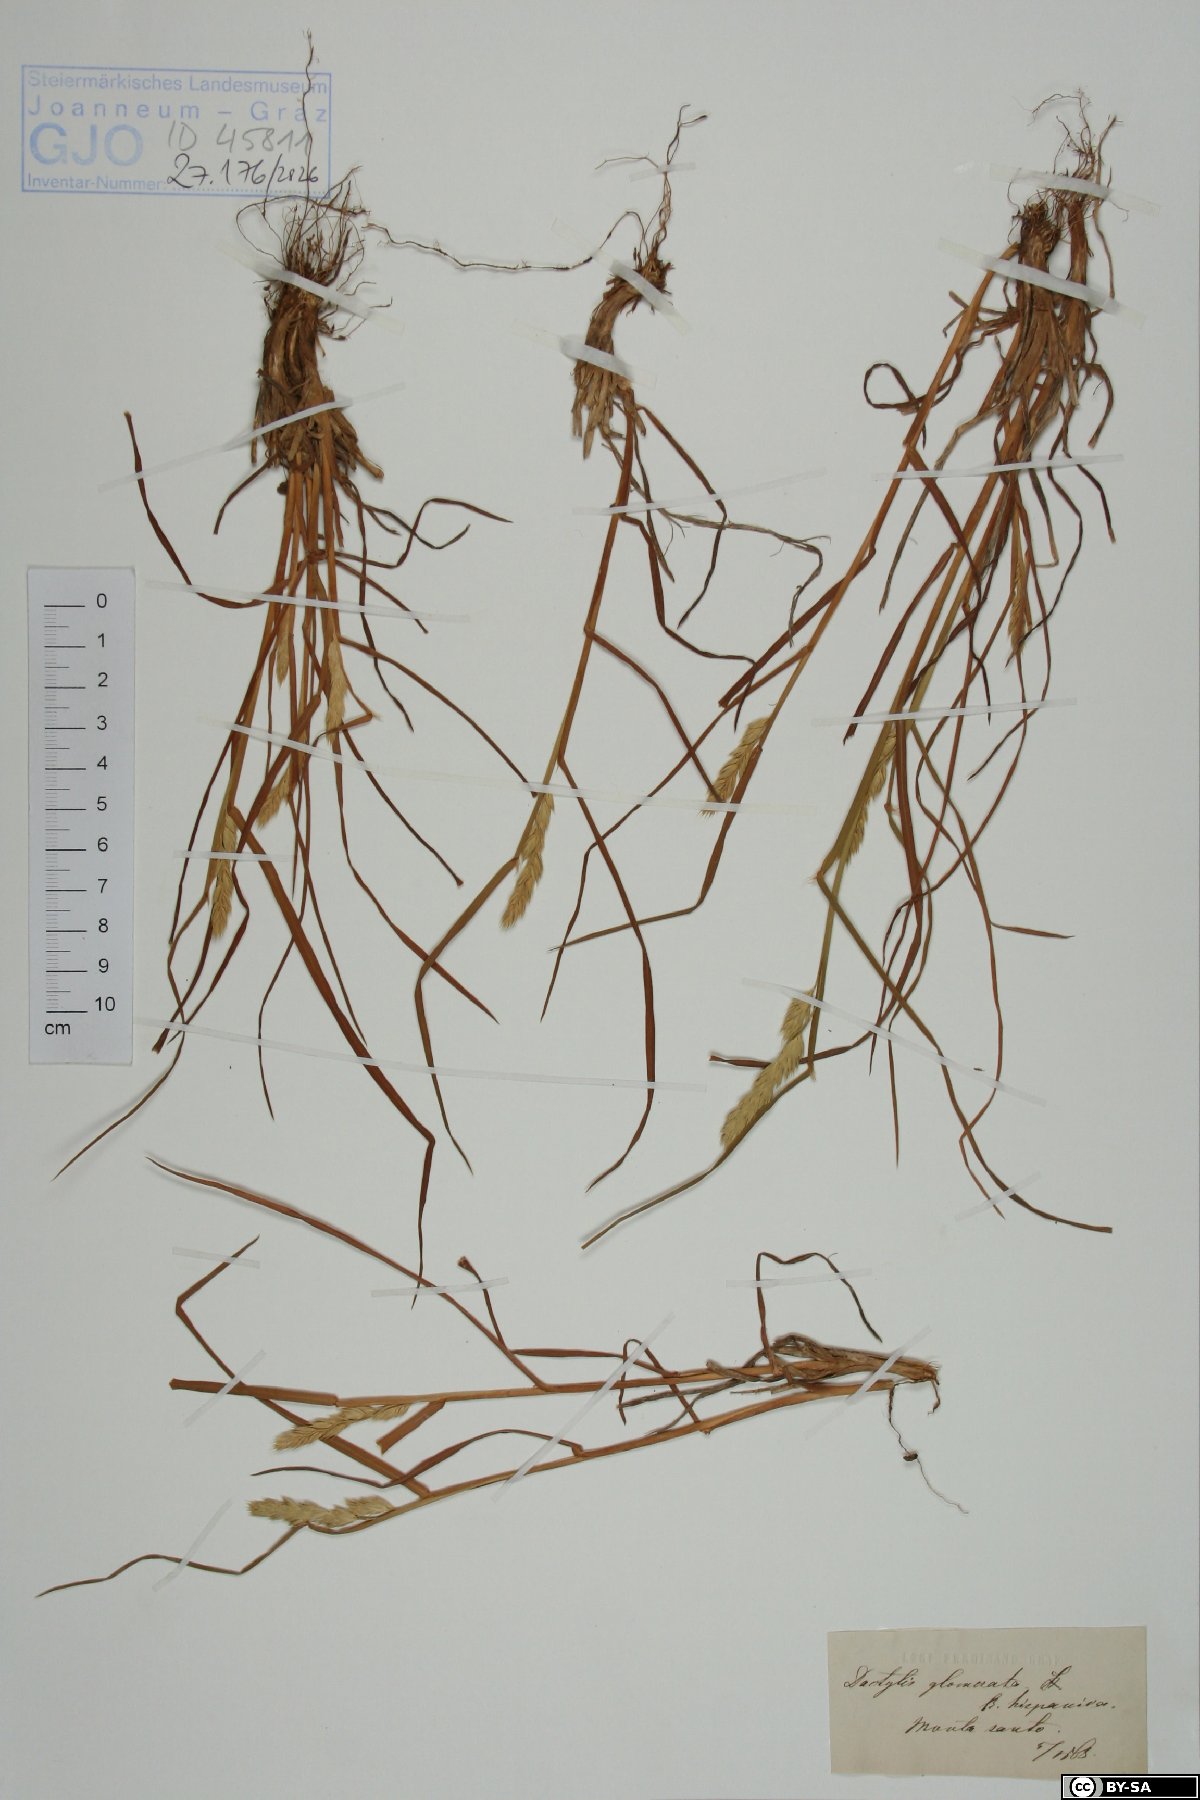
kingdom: Plantae
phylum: Tracheophyta
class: Liliopsida
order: Poales
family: Poaceae
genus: Dactylis
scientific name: Dactylis glomerata
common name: Orchardgrass
